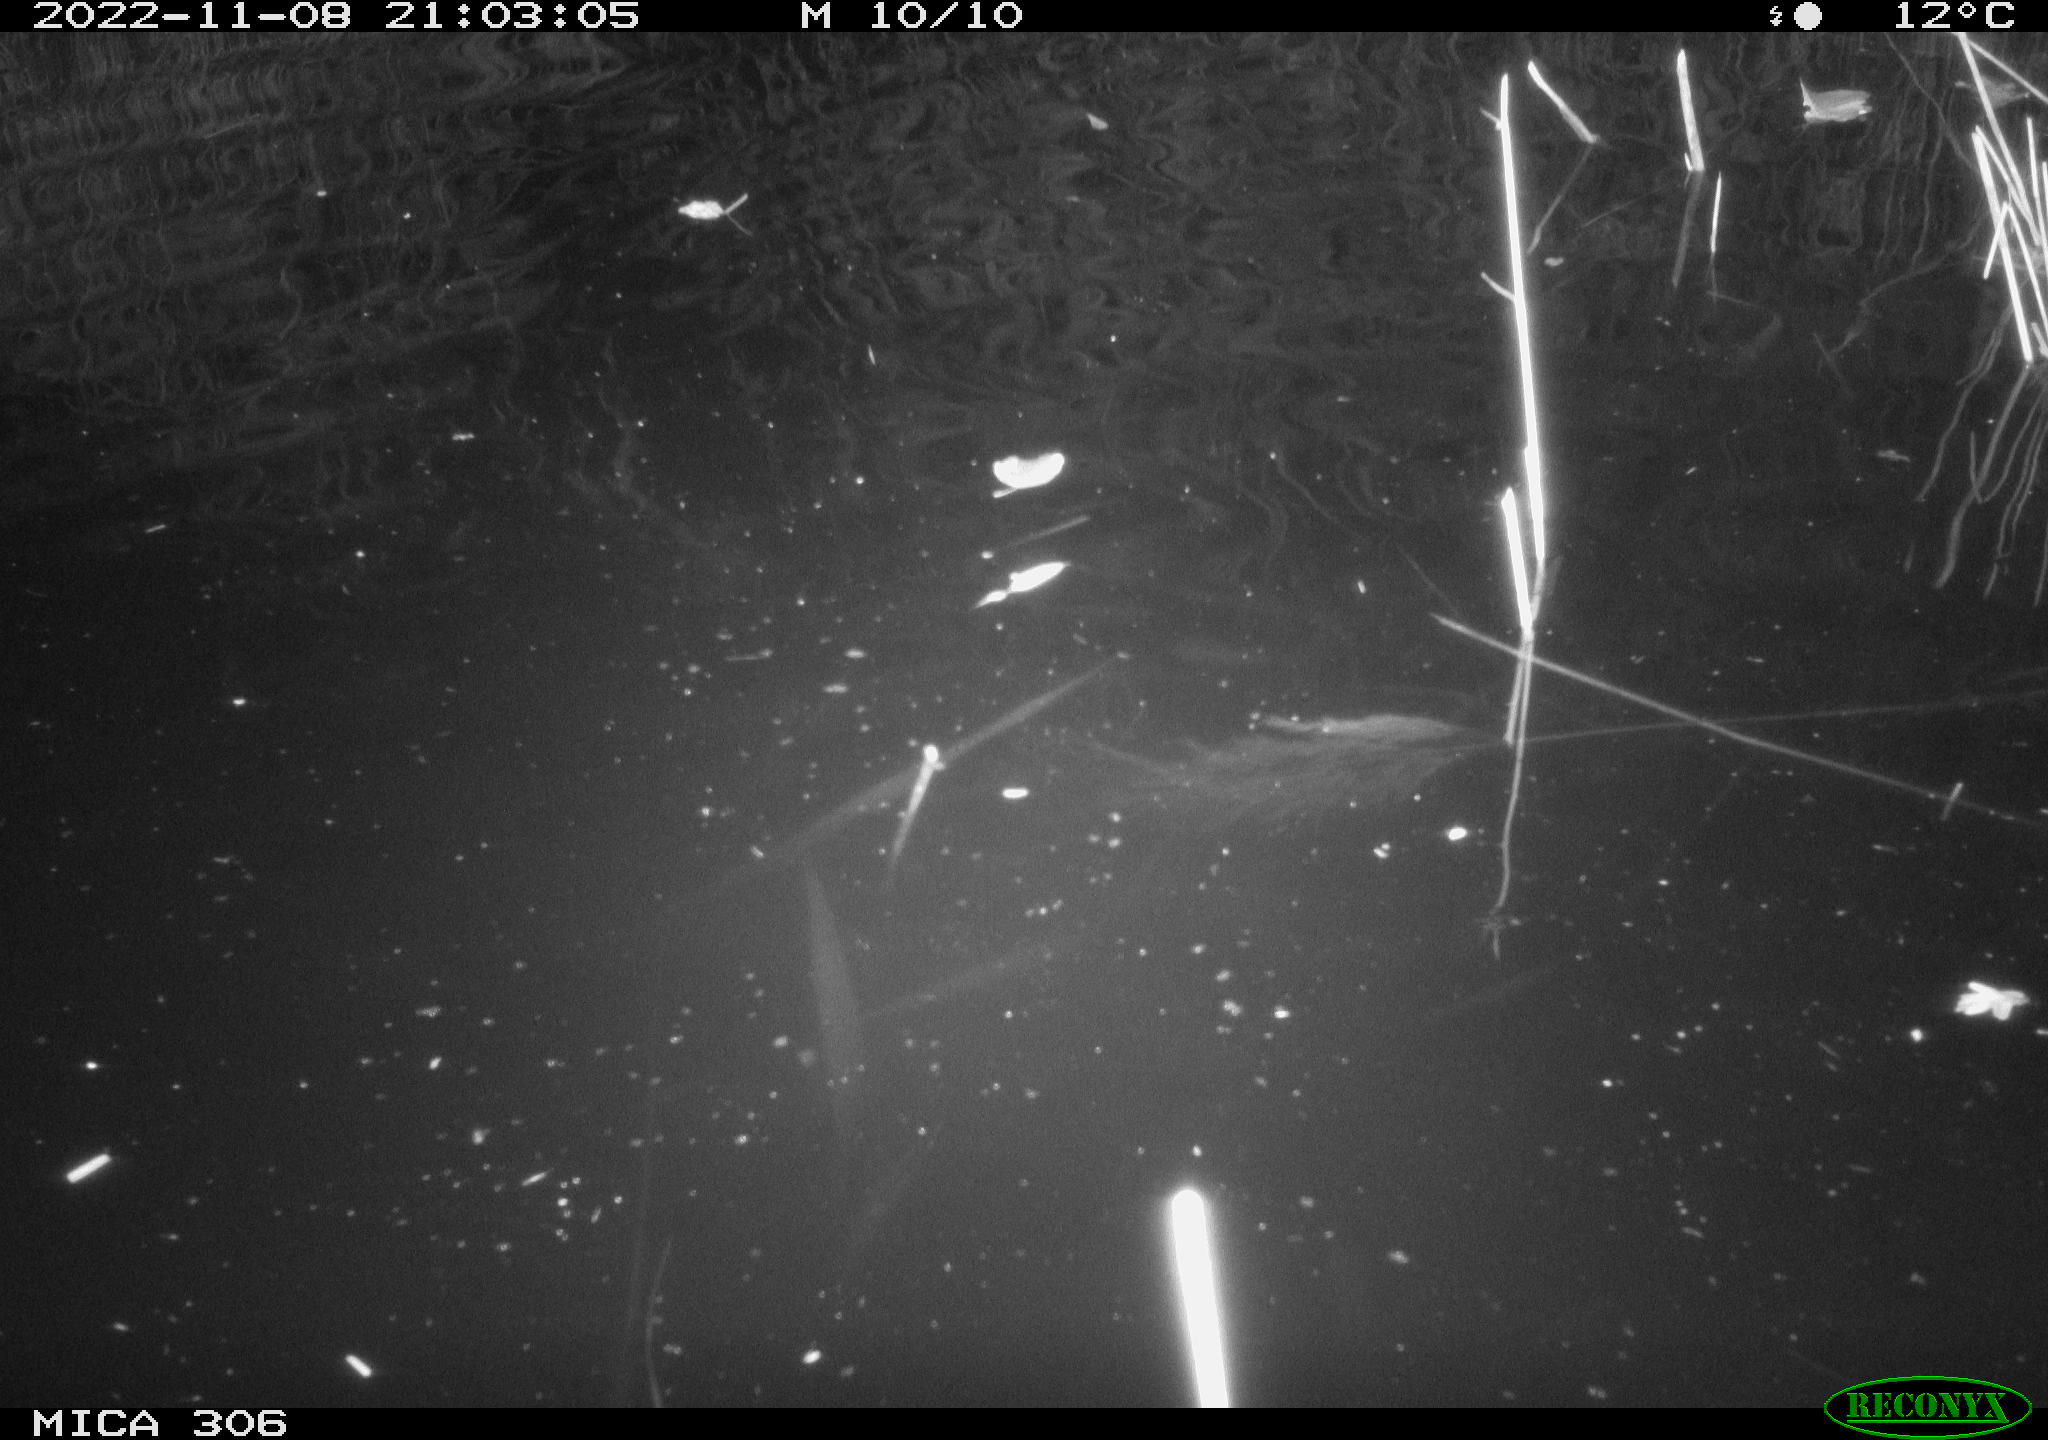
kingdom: Animalia
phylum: Chordata
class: Mammalia
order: Rodentia
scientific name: Rodentia
